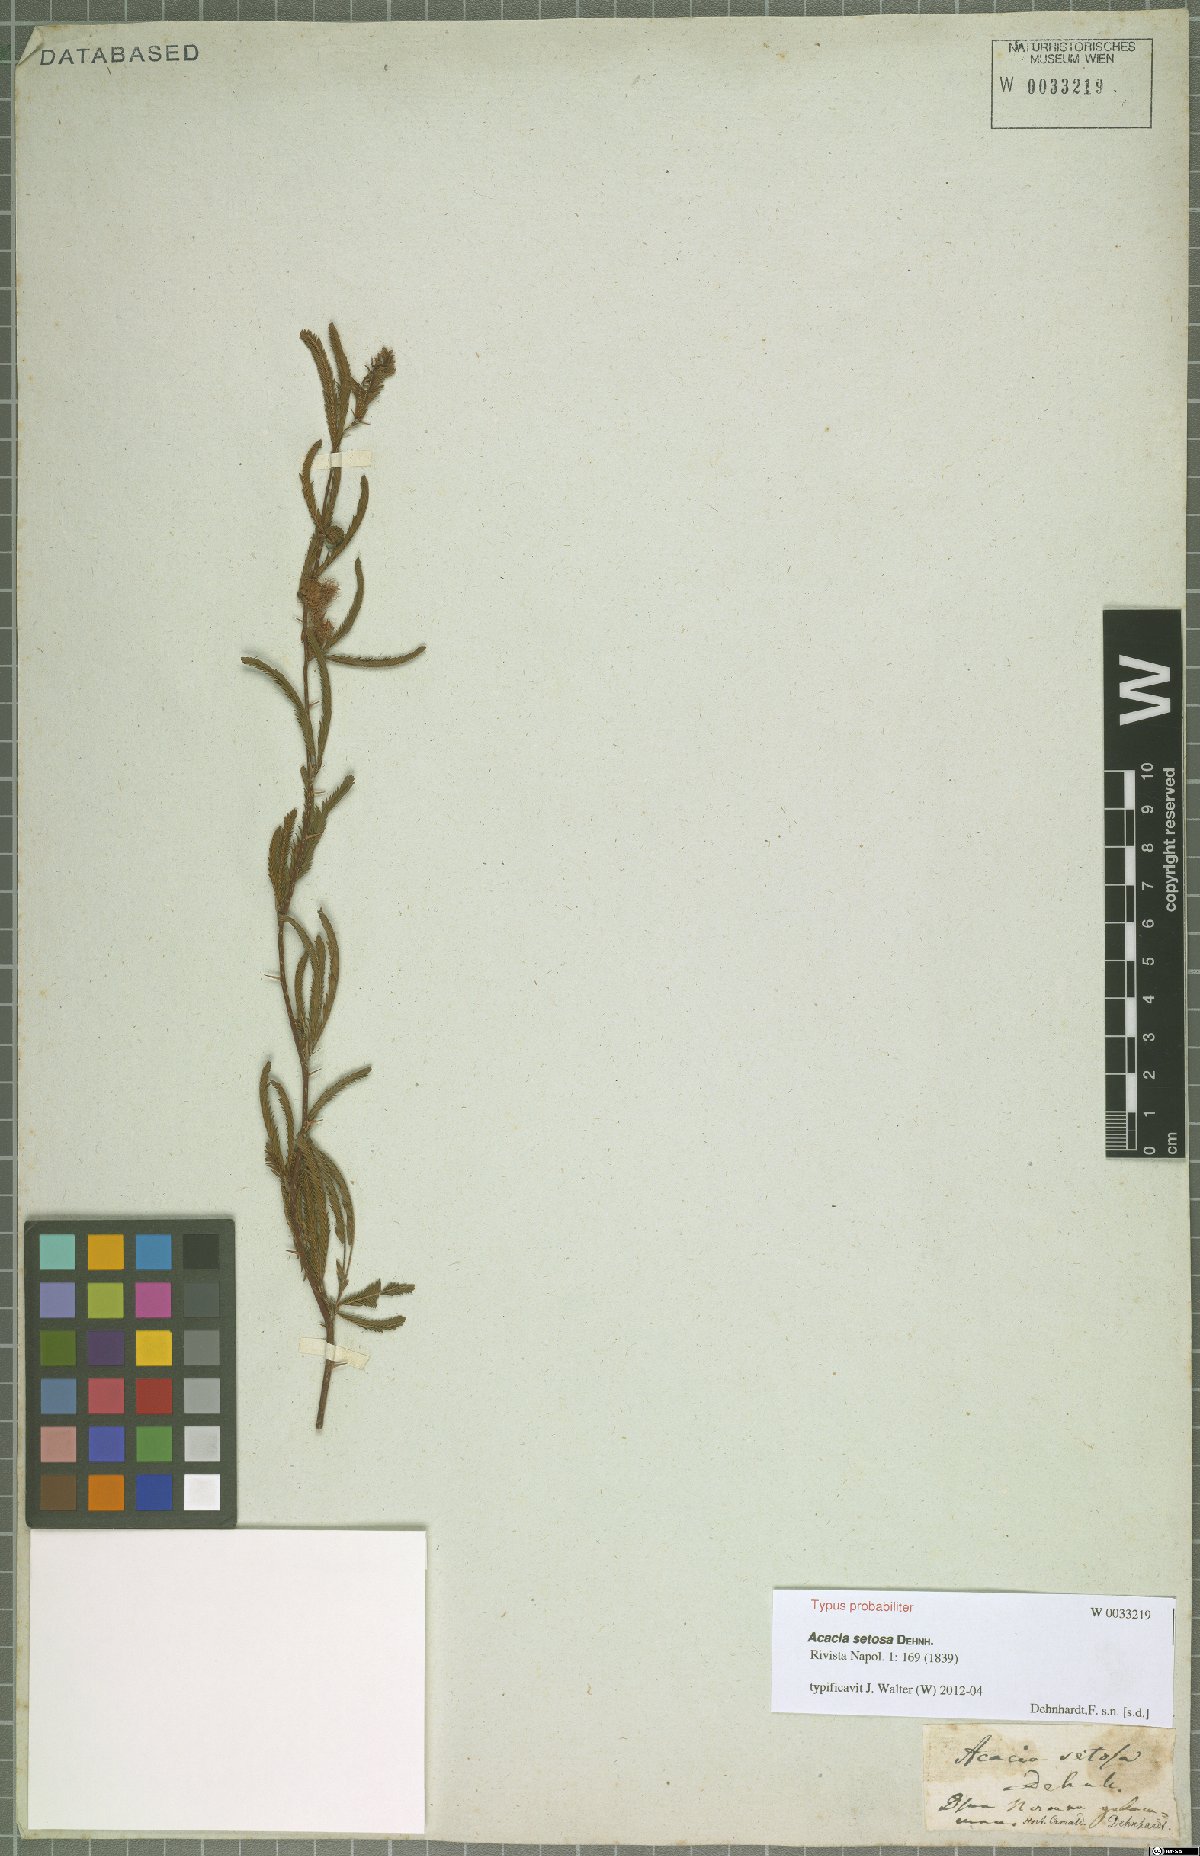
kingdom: Plantae
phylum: Tracheophyta
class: Magnoliopsida
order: Fabales
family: Fabaceae
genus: Acacia
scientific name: Acacia setosa
